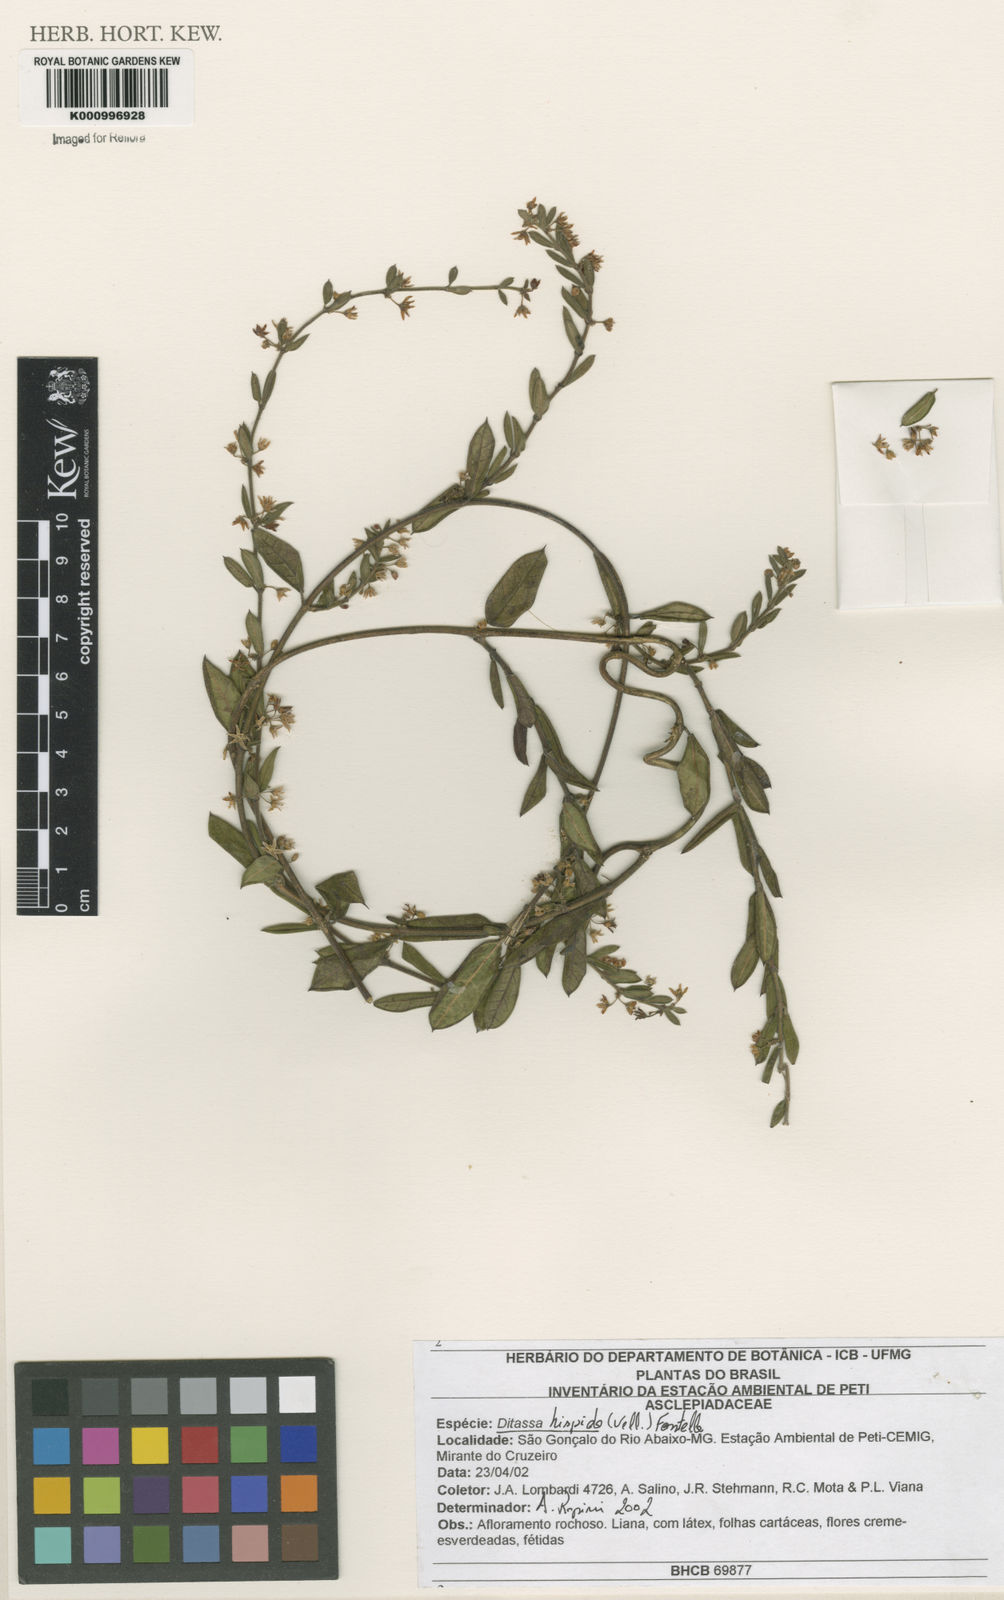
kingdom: Plantae
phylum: Tracheophyta
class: Magnoliopsida
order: Gentianales
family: Apocynaceae
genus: Ditassa
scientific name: Ditassa hispida
